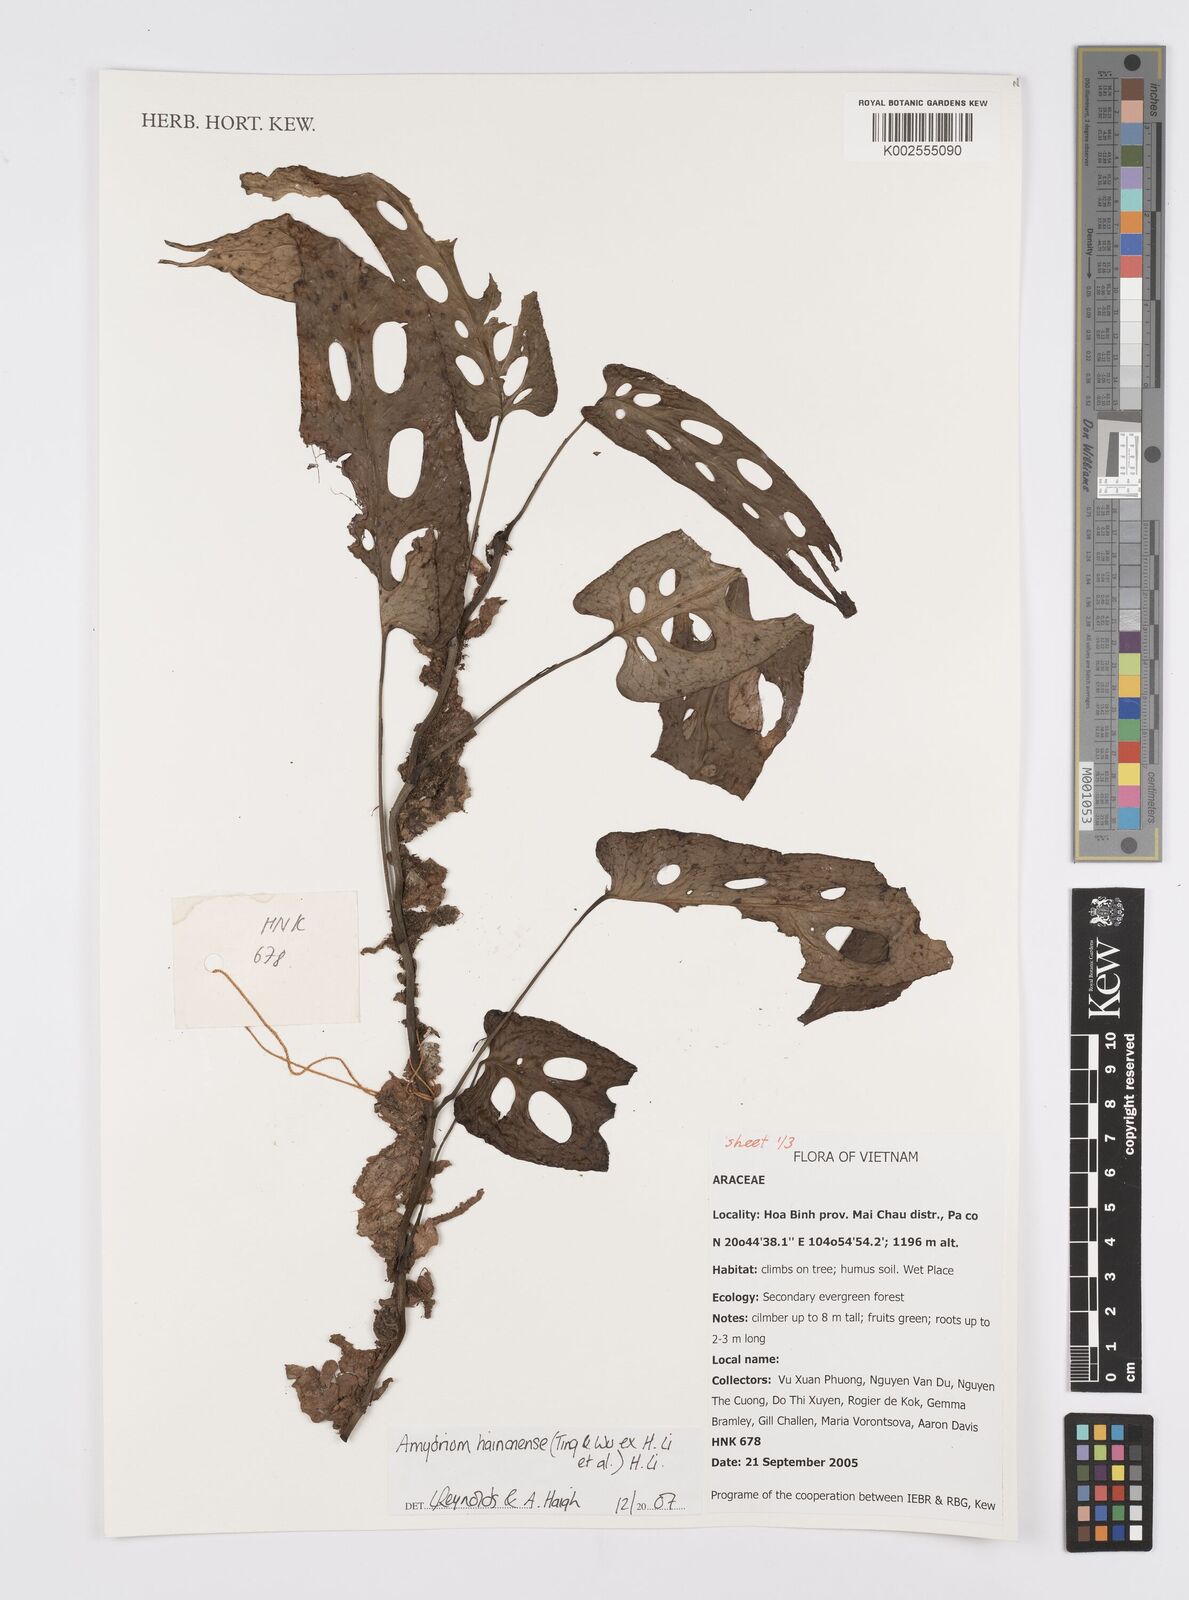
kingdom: Plantae
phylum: Tracheophyta
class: Liliopsida
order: Alismatales
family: Araceae
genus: Amydrium
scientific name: Amydrium hainanense
